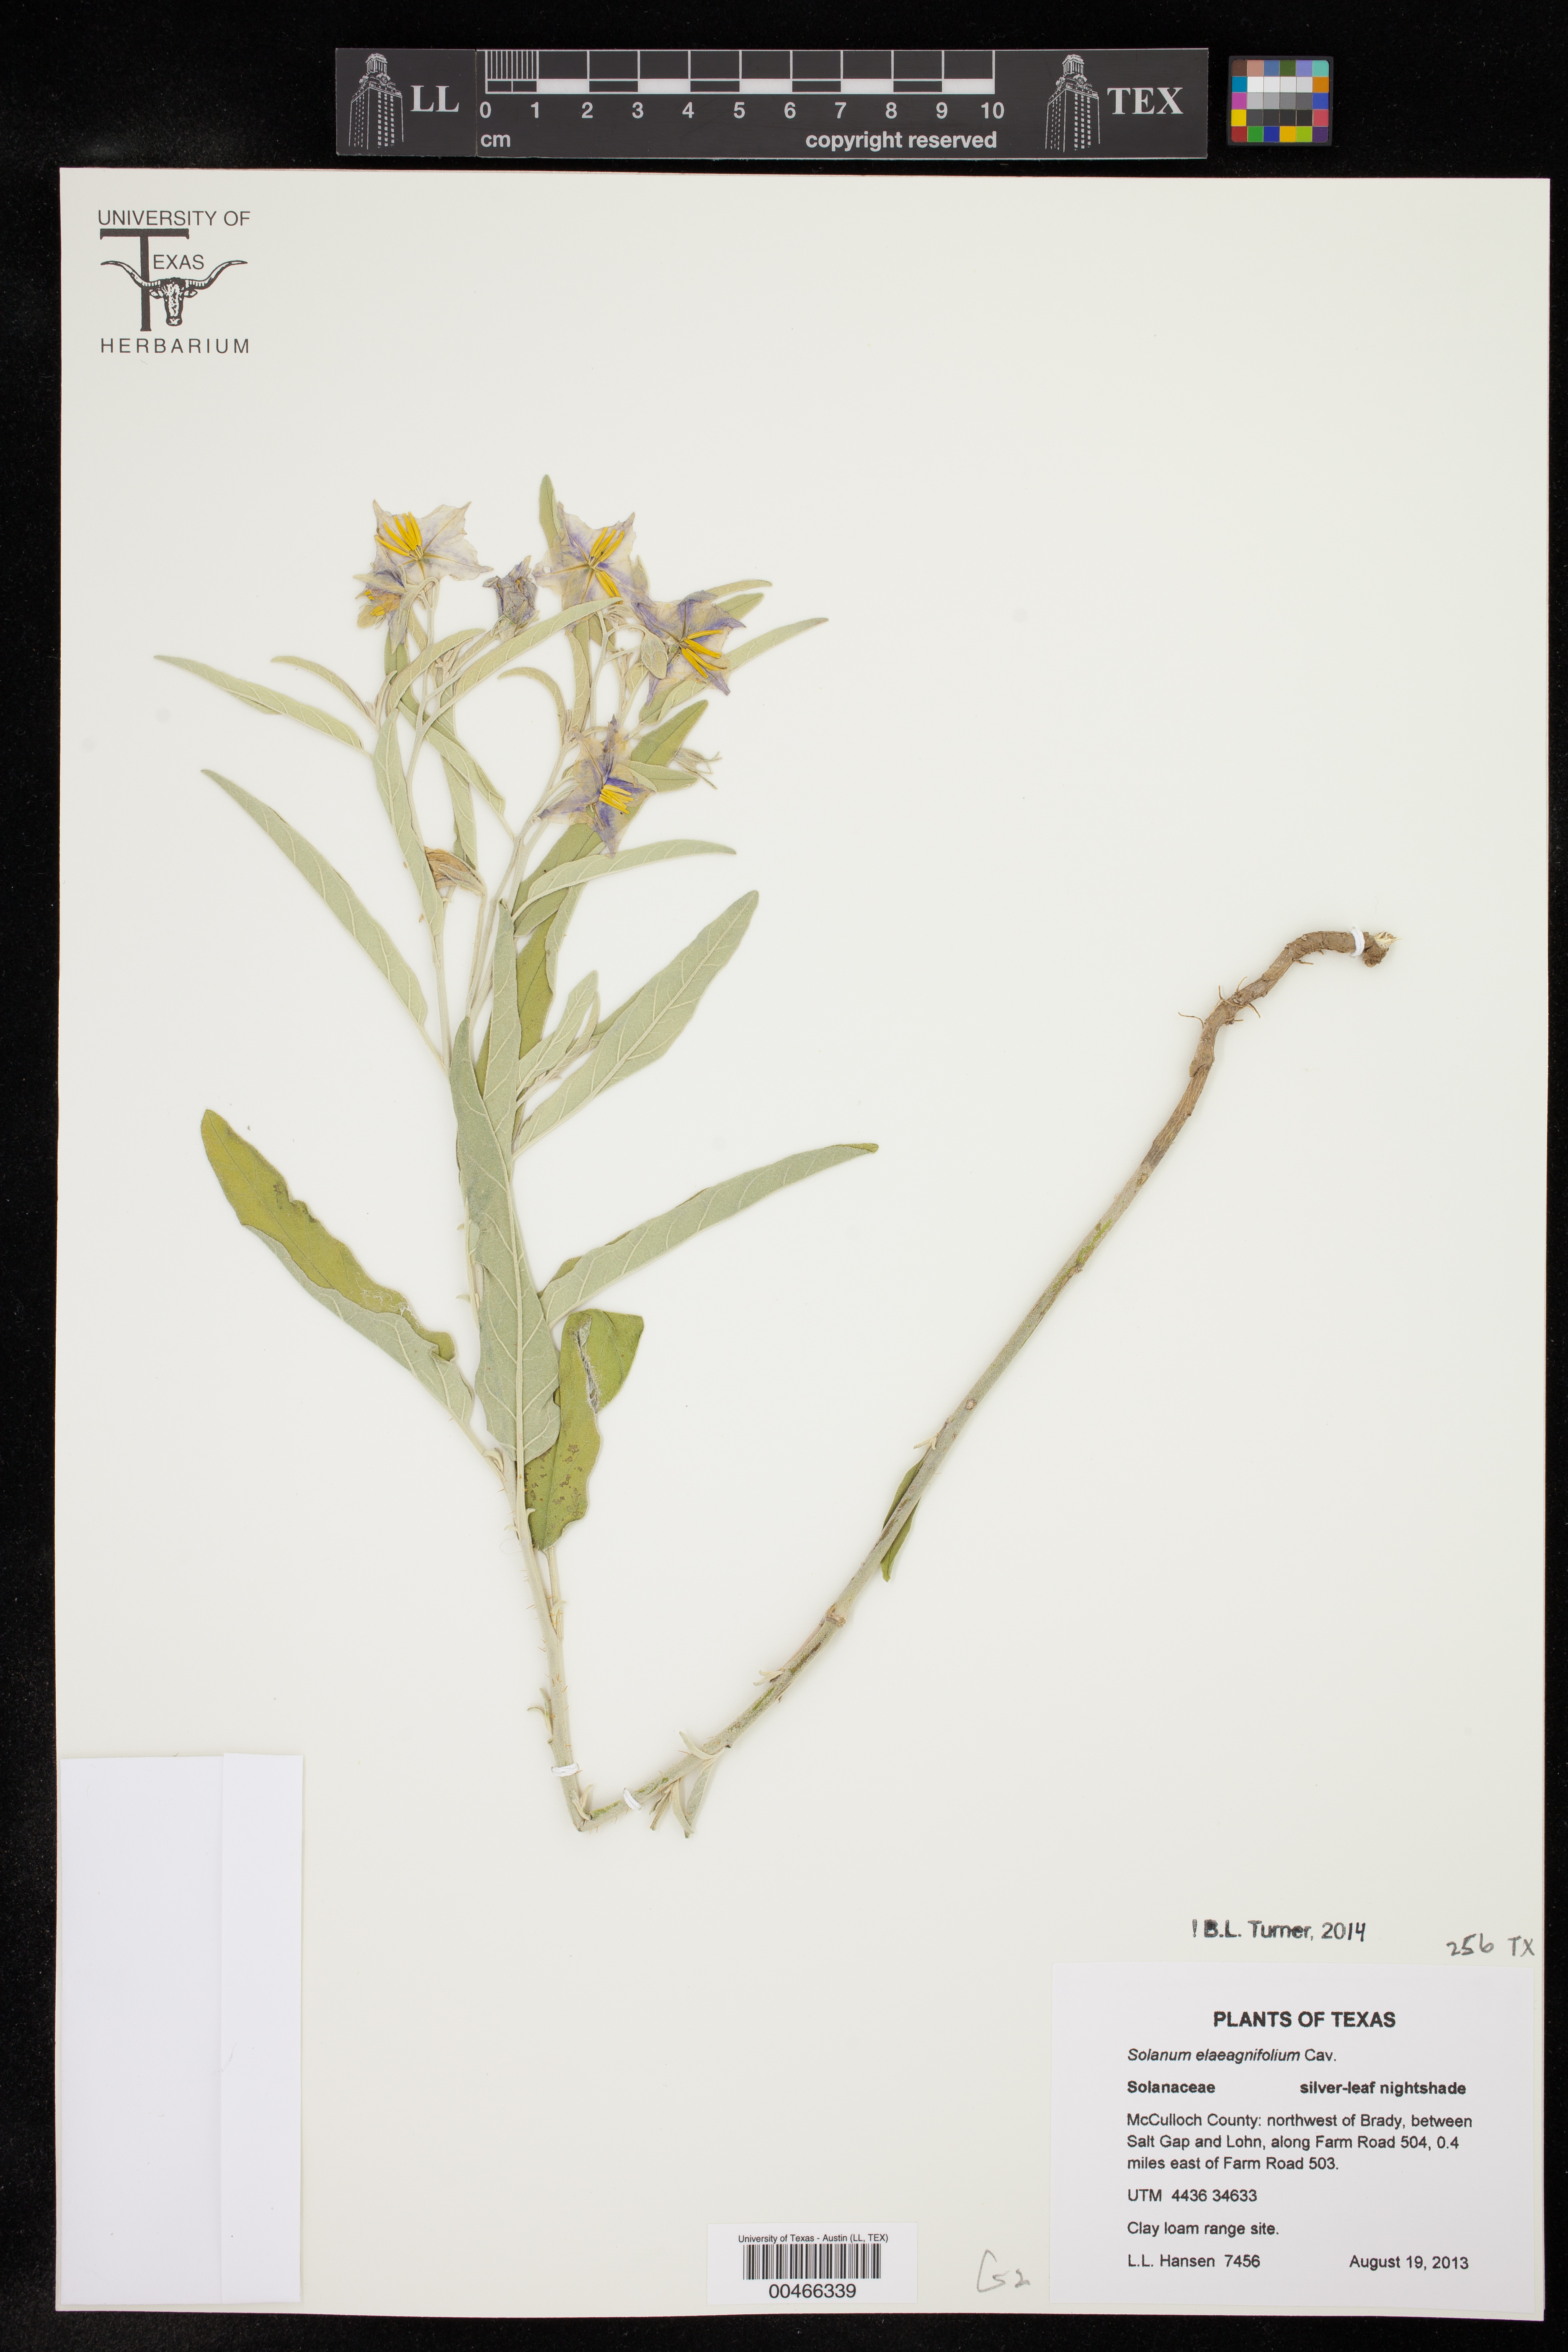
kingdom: Plantae
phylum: Tracheophyta
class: Magnoliopsida
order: Solanales
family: Solanaceae
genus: Solanum
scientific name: Solanum elaeagnifolium
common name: Silverleaf nightshade
